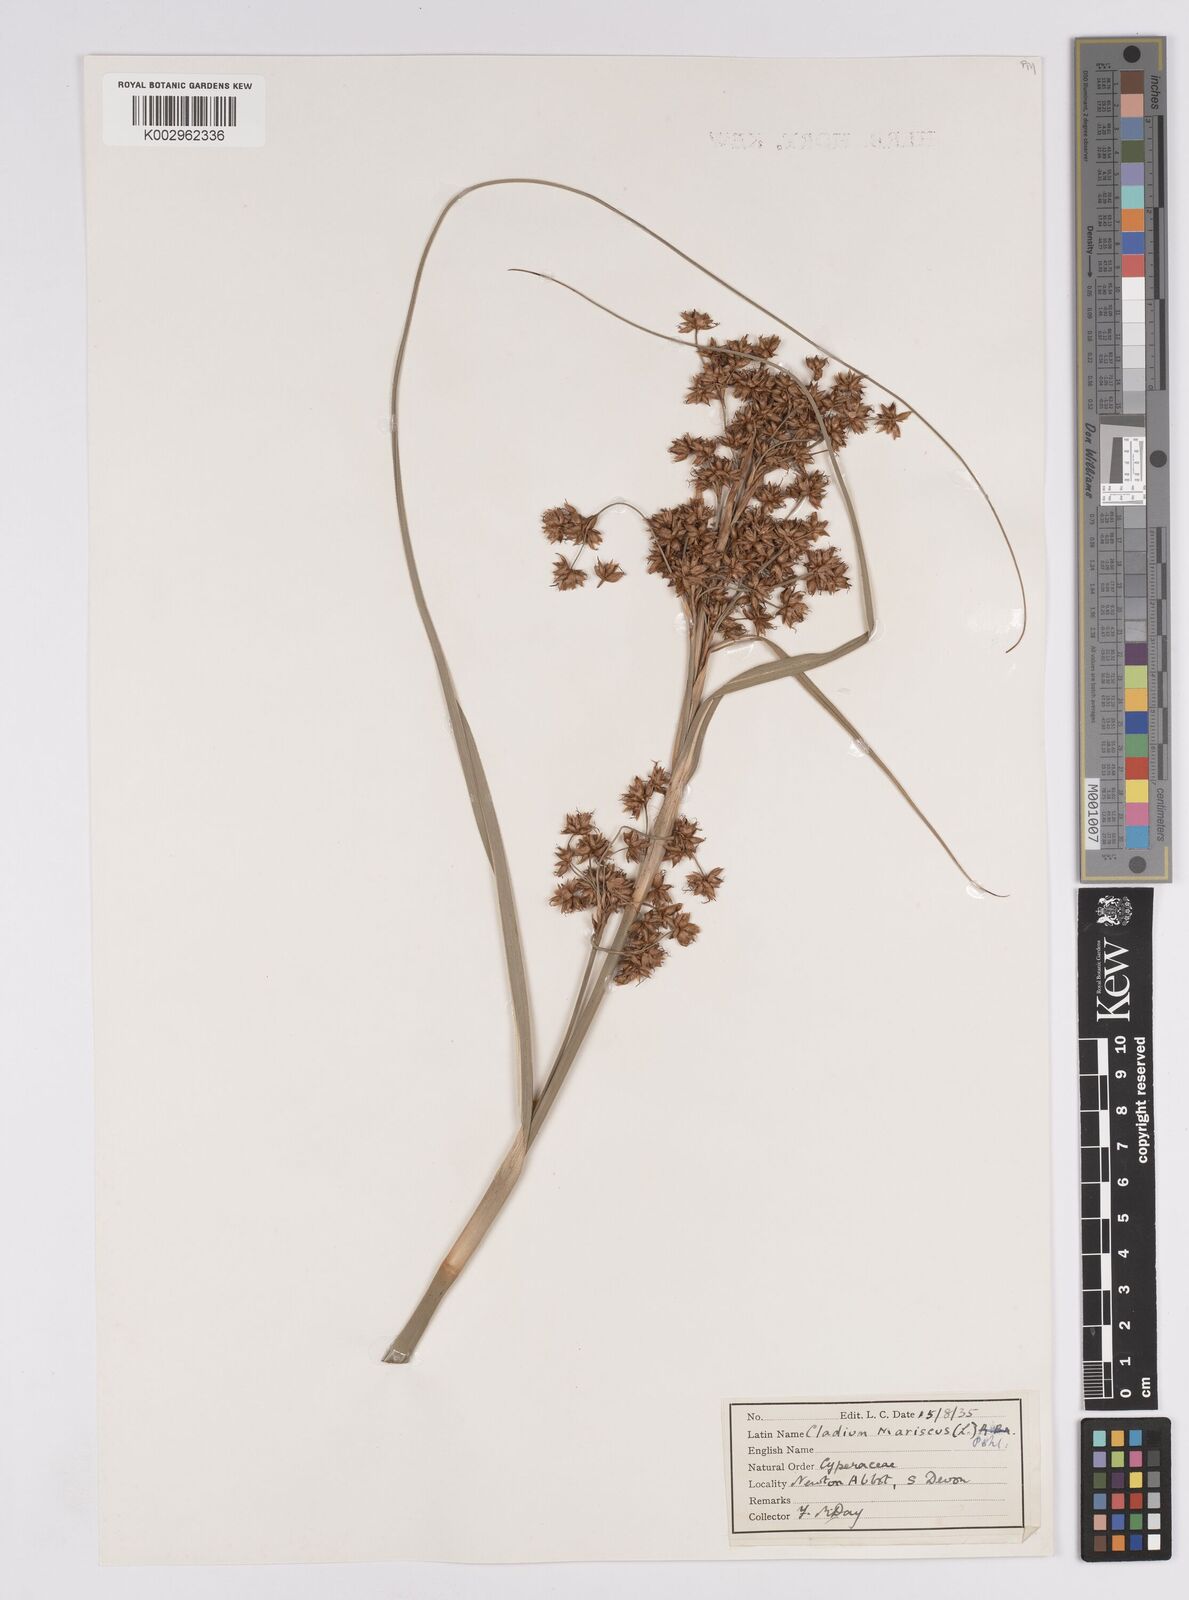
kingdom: Plantae
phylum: Tracheophyta
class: Liliopsida
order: Poales
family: Cyperaceae
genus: Cladium
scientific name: Cladium mariscus
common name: Great fen-sedge
